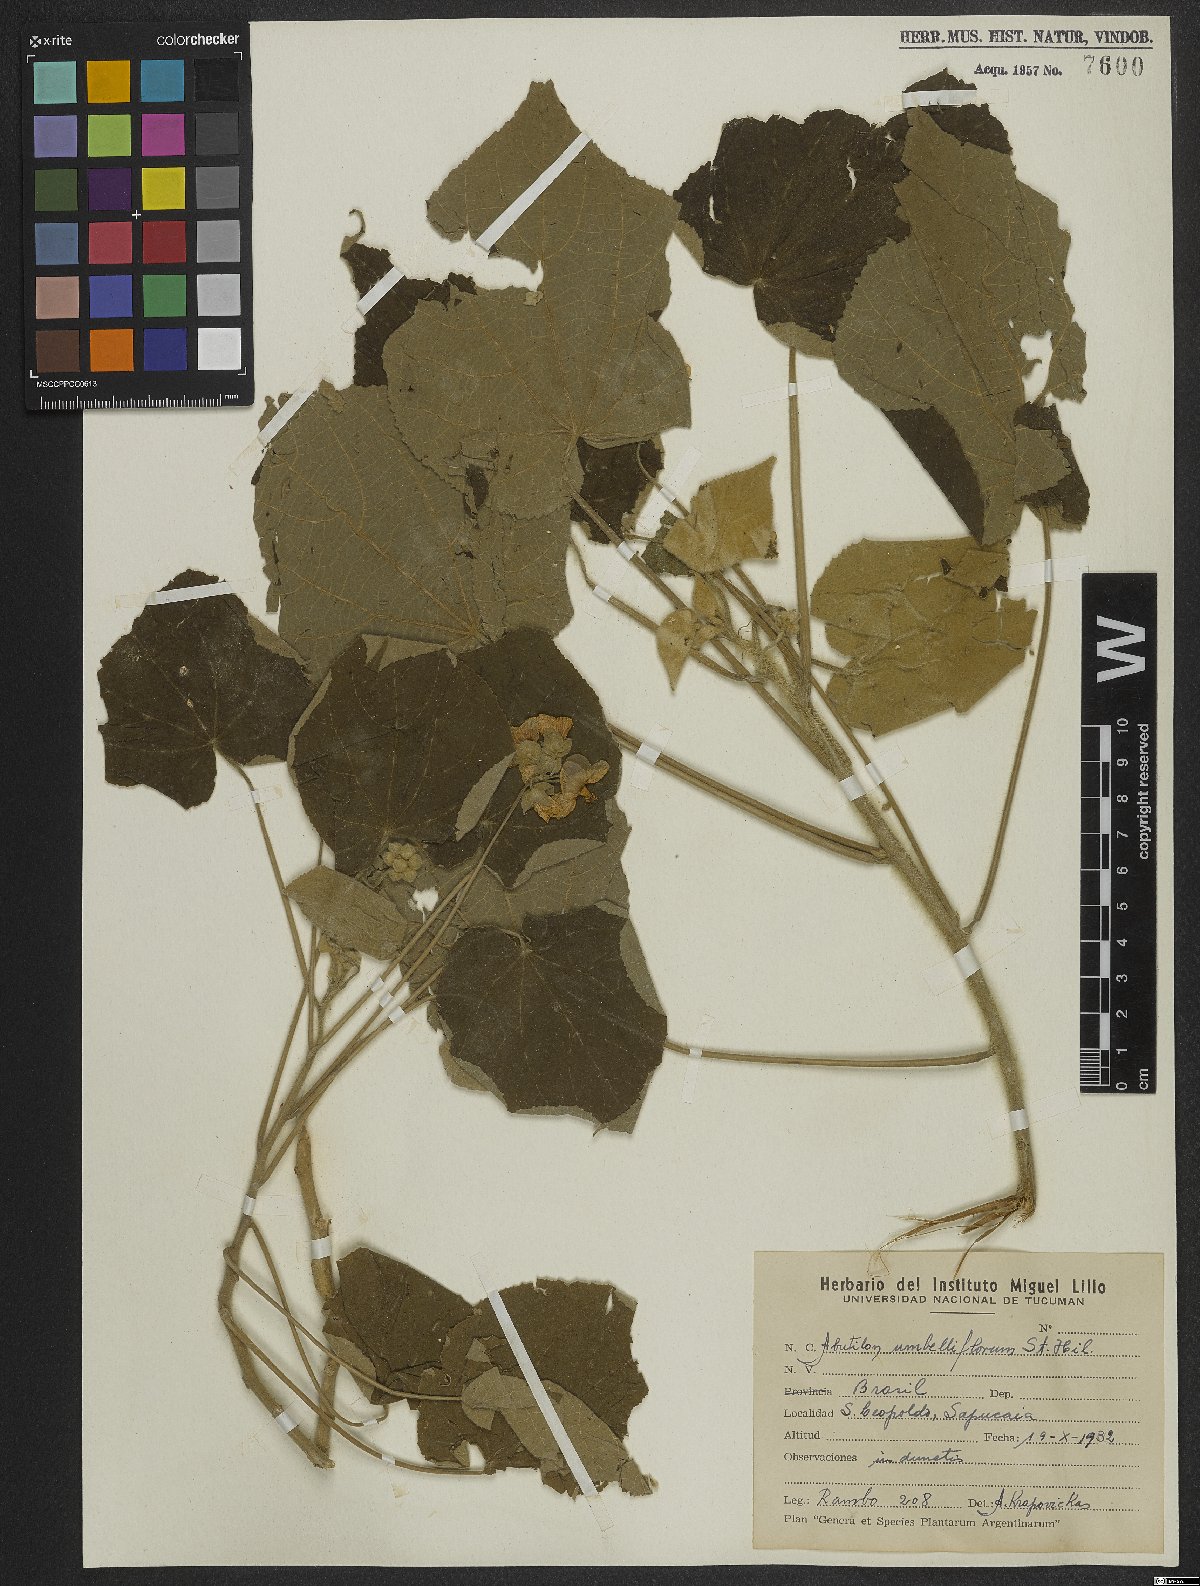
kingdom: Plantae
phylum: Tracheophyta
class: Magnoliopsida
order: Malvales
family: Malvaceae
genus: Abutilon
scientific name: Abutilon umbelliflorum
